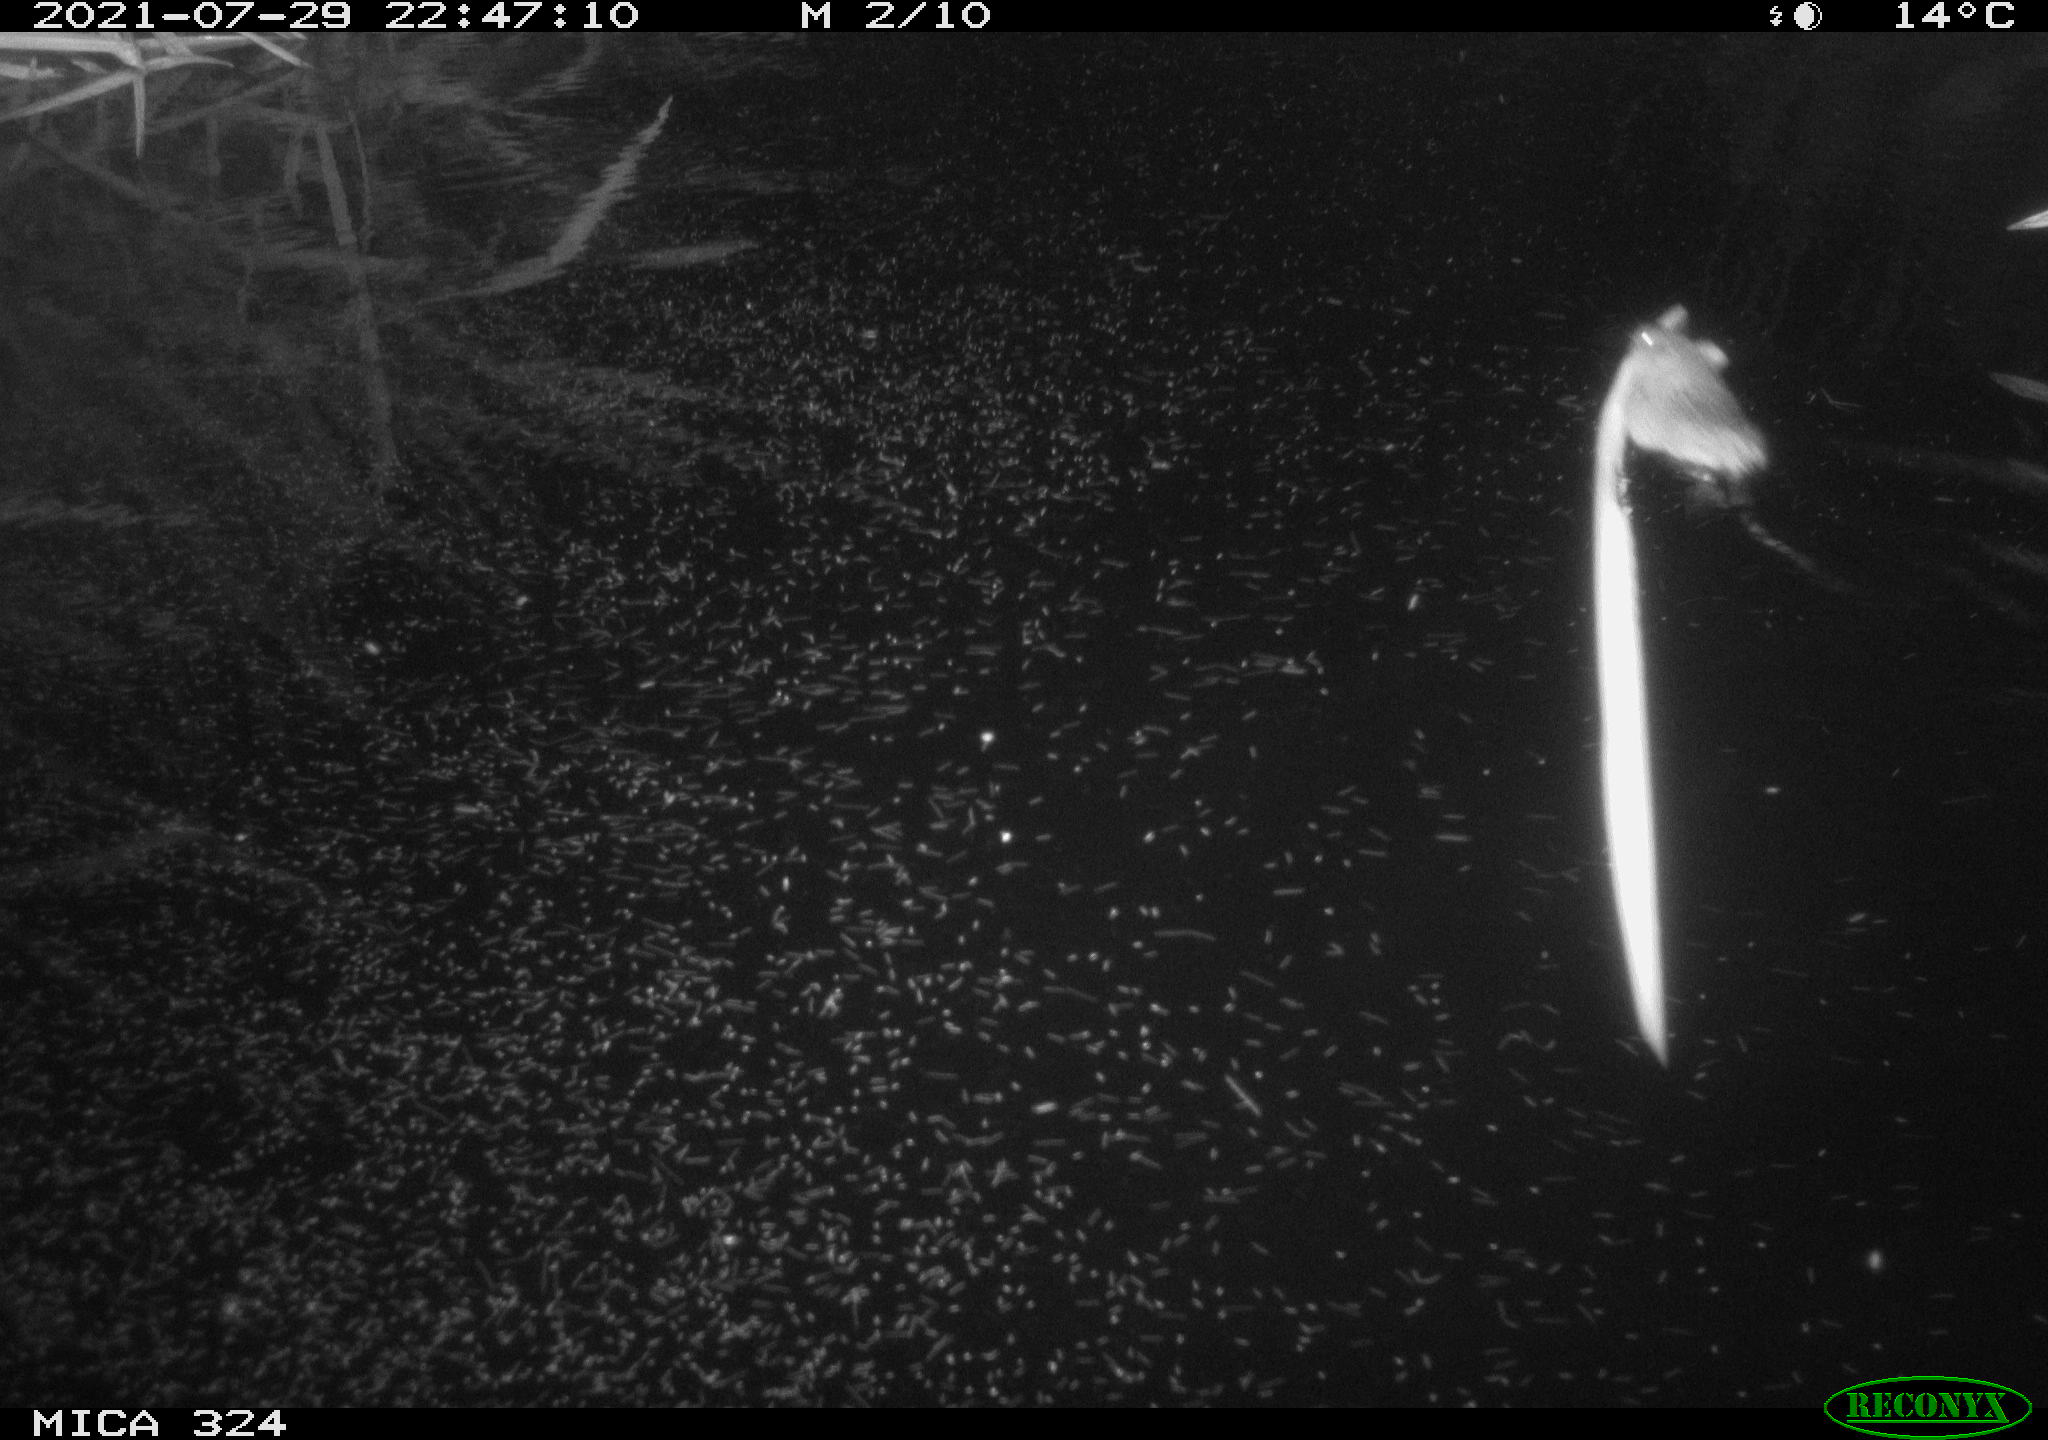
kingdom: Animalia
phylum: Chordata
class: Mammalia
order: Rodentia
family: Cricetidae
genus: Ondatra
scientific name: Ondatra zibethicus
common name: Muskrat
